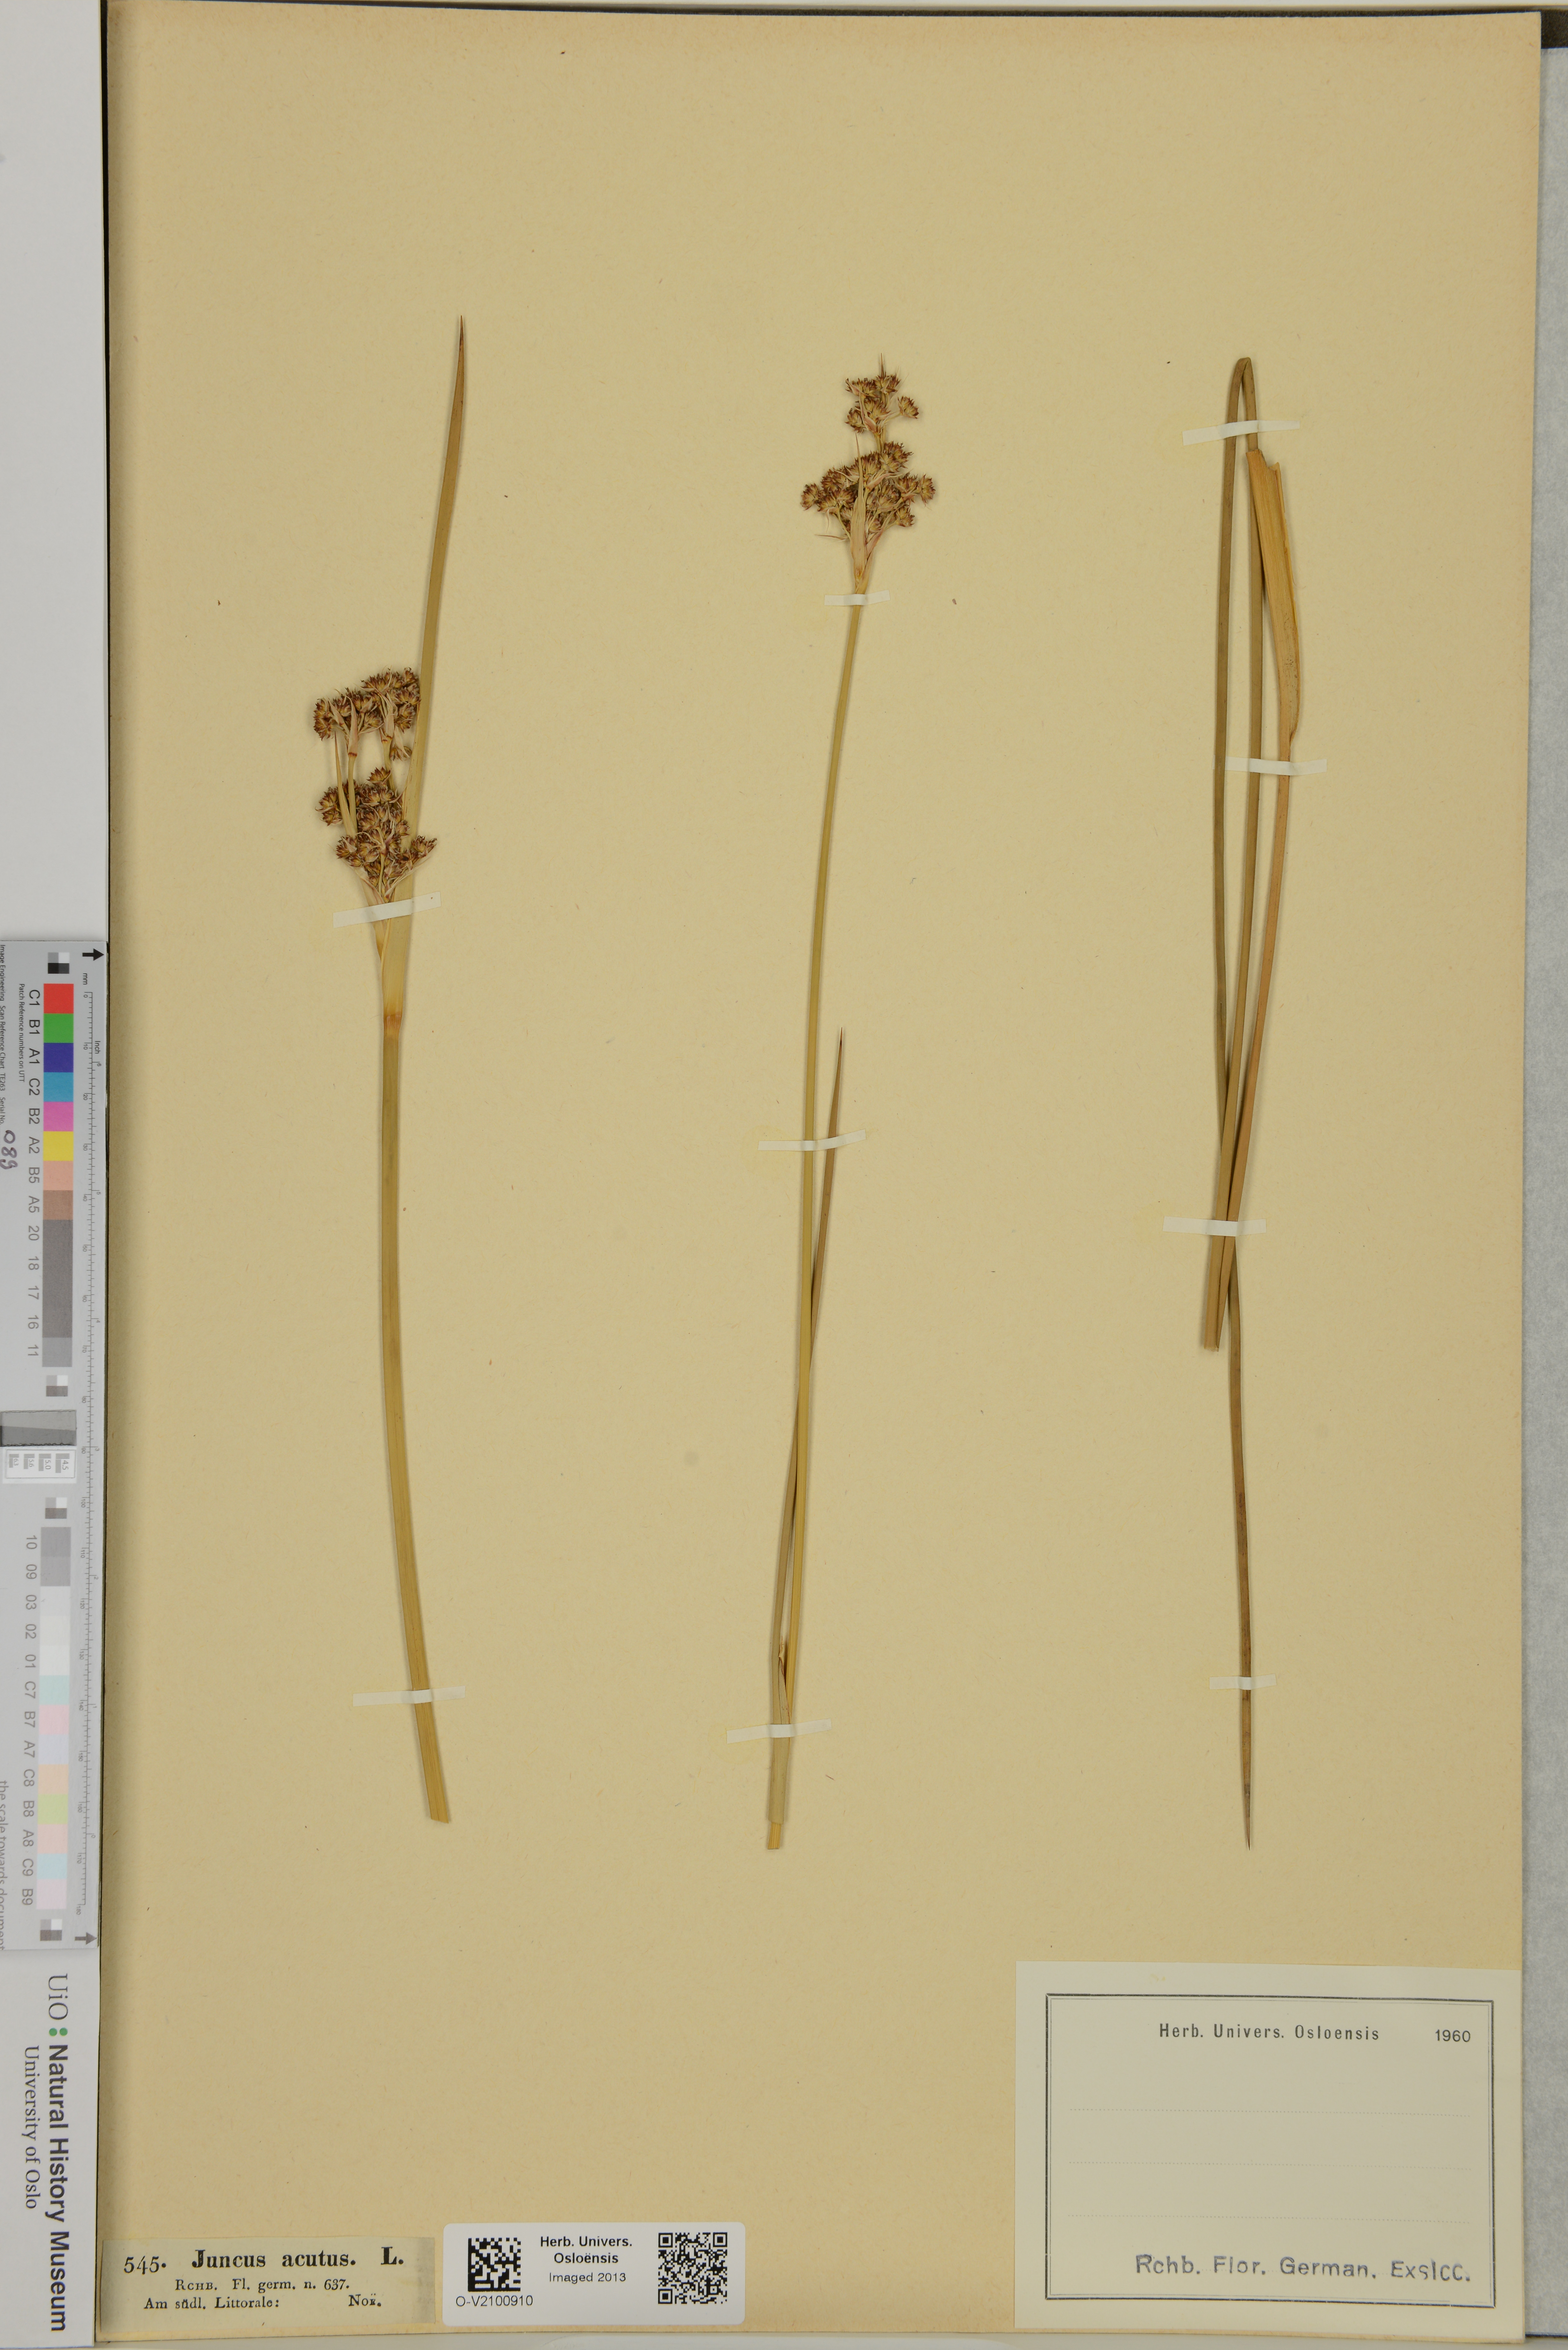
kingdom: Plantae
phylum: Tracheophyta
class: Liliopsida
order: Poales
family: Juncaceae
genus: Juncus
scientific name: Juncus acutus
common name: Sharp rush
